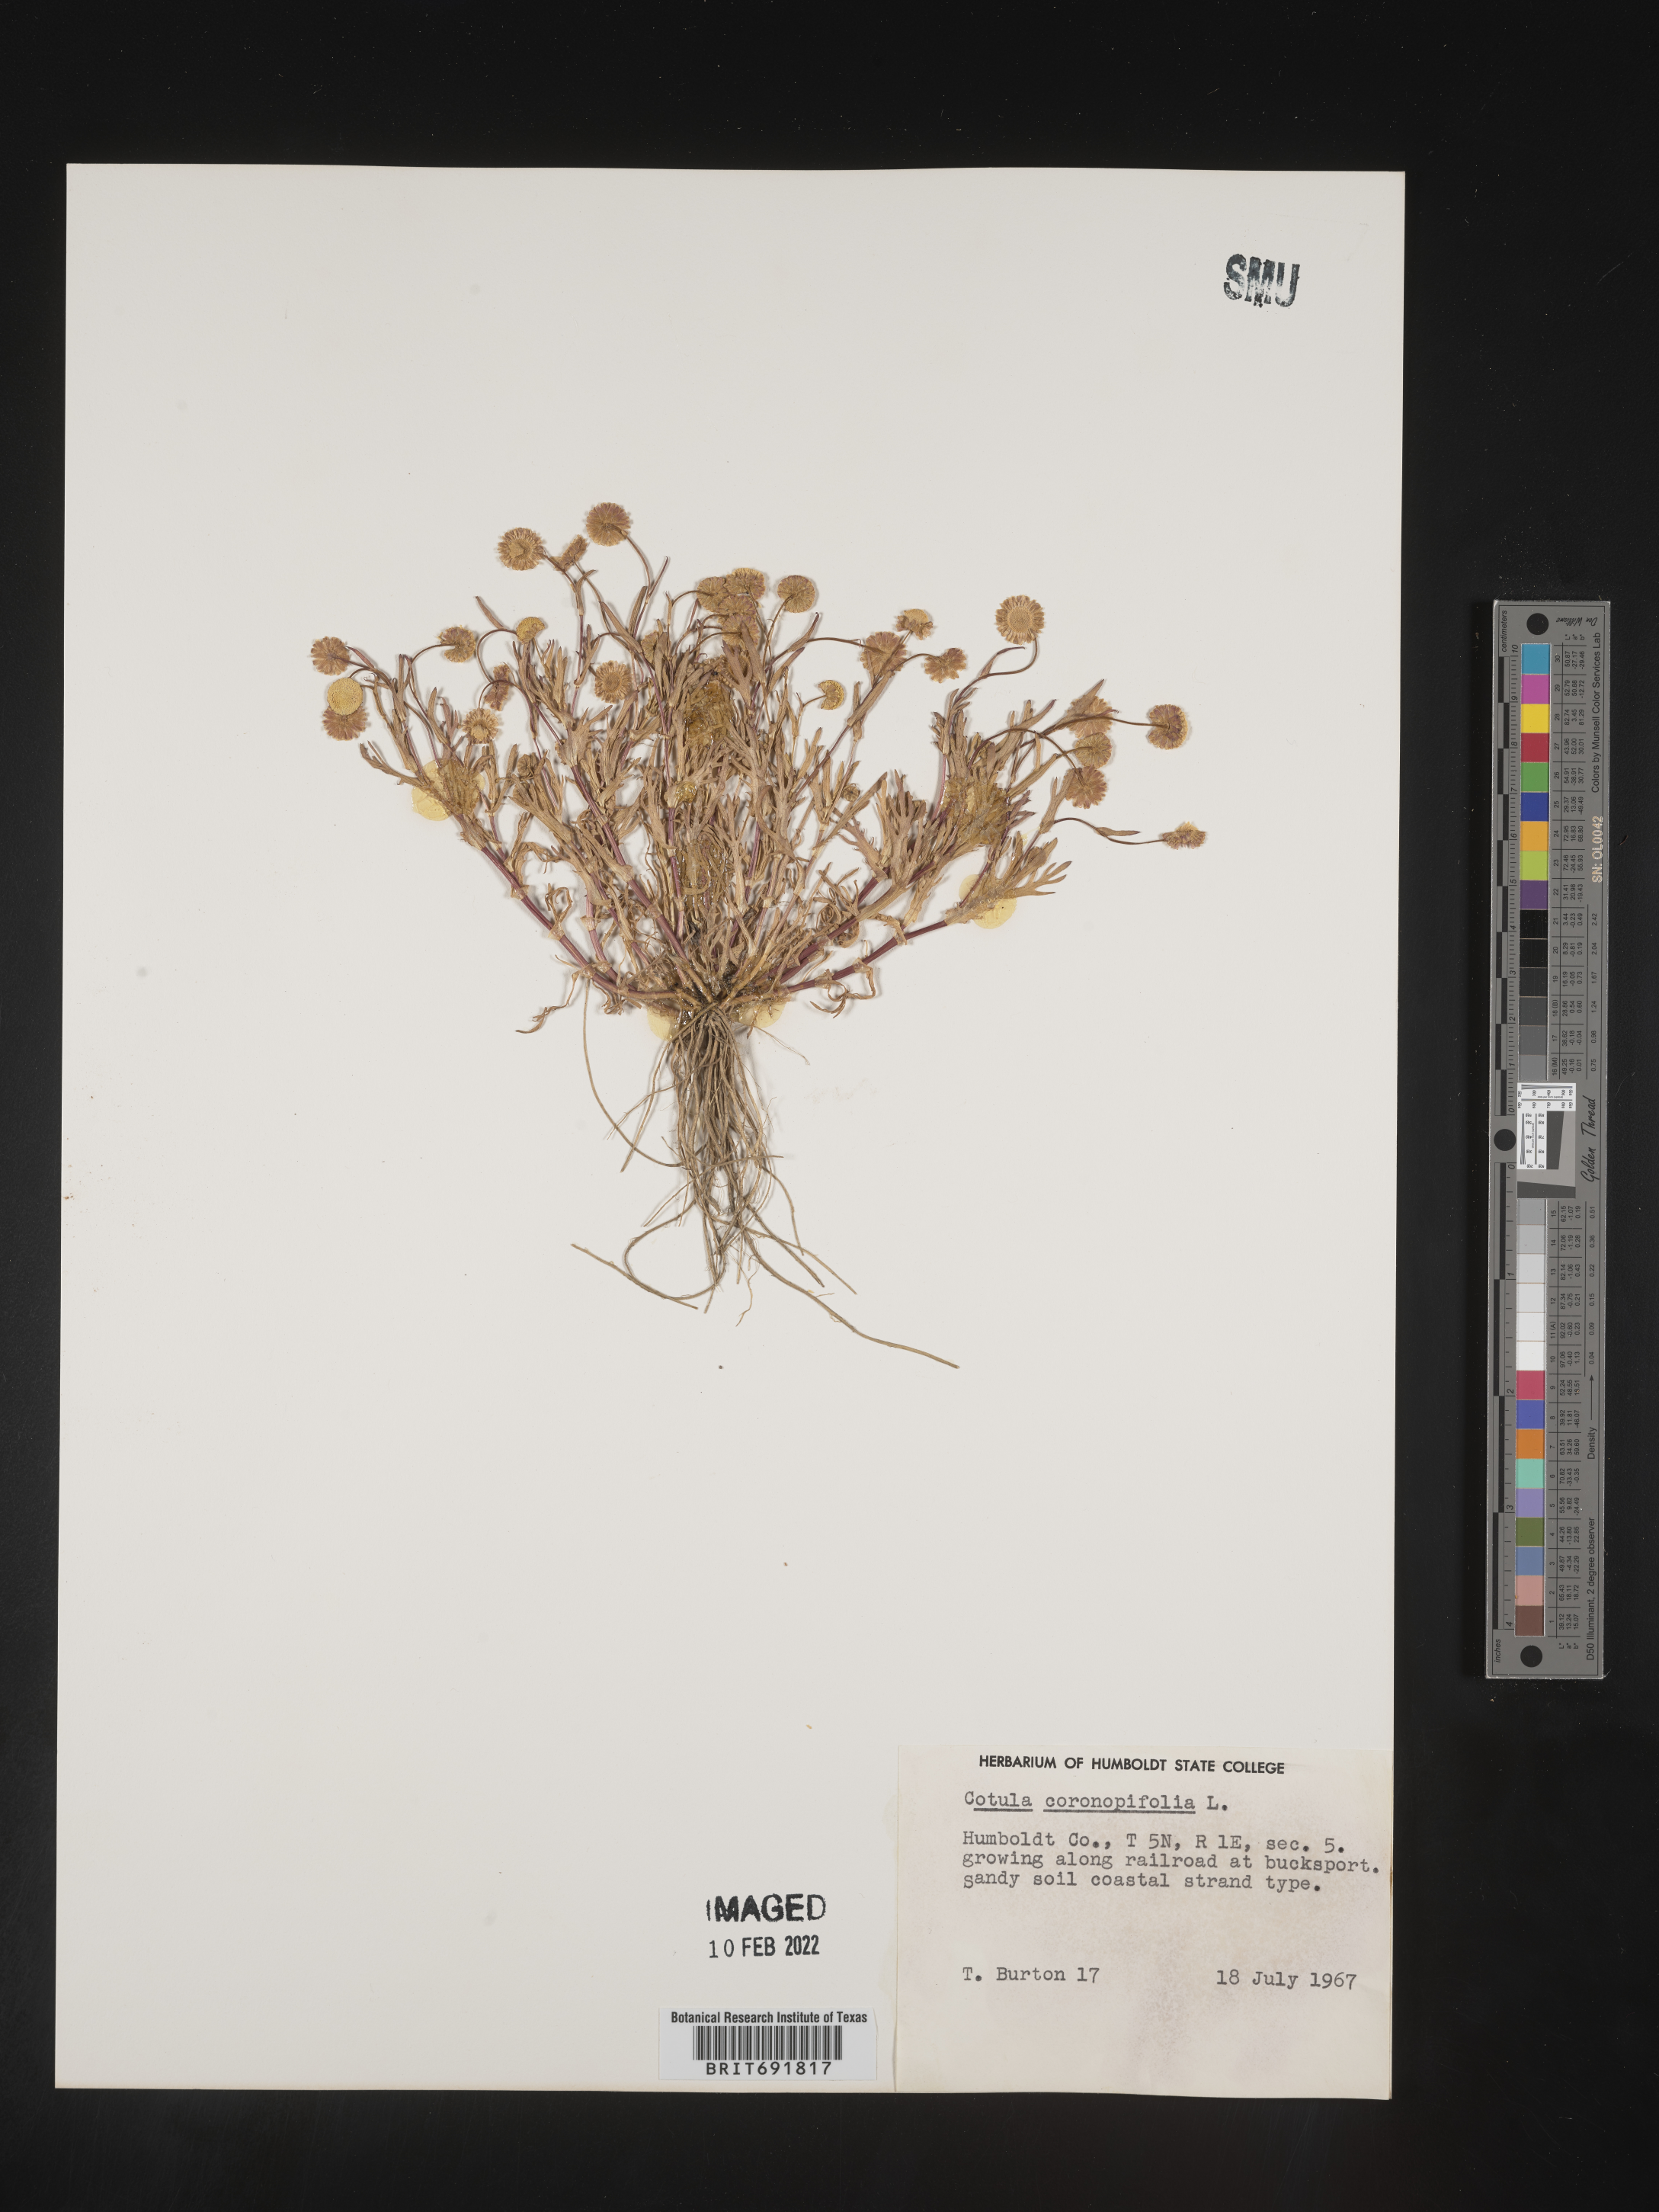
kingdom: Plantae
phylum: Tracheophyta
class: Magnoliopsida
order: Asterales
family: Asteraceae
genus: Cotula
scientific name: Cotula
